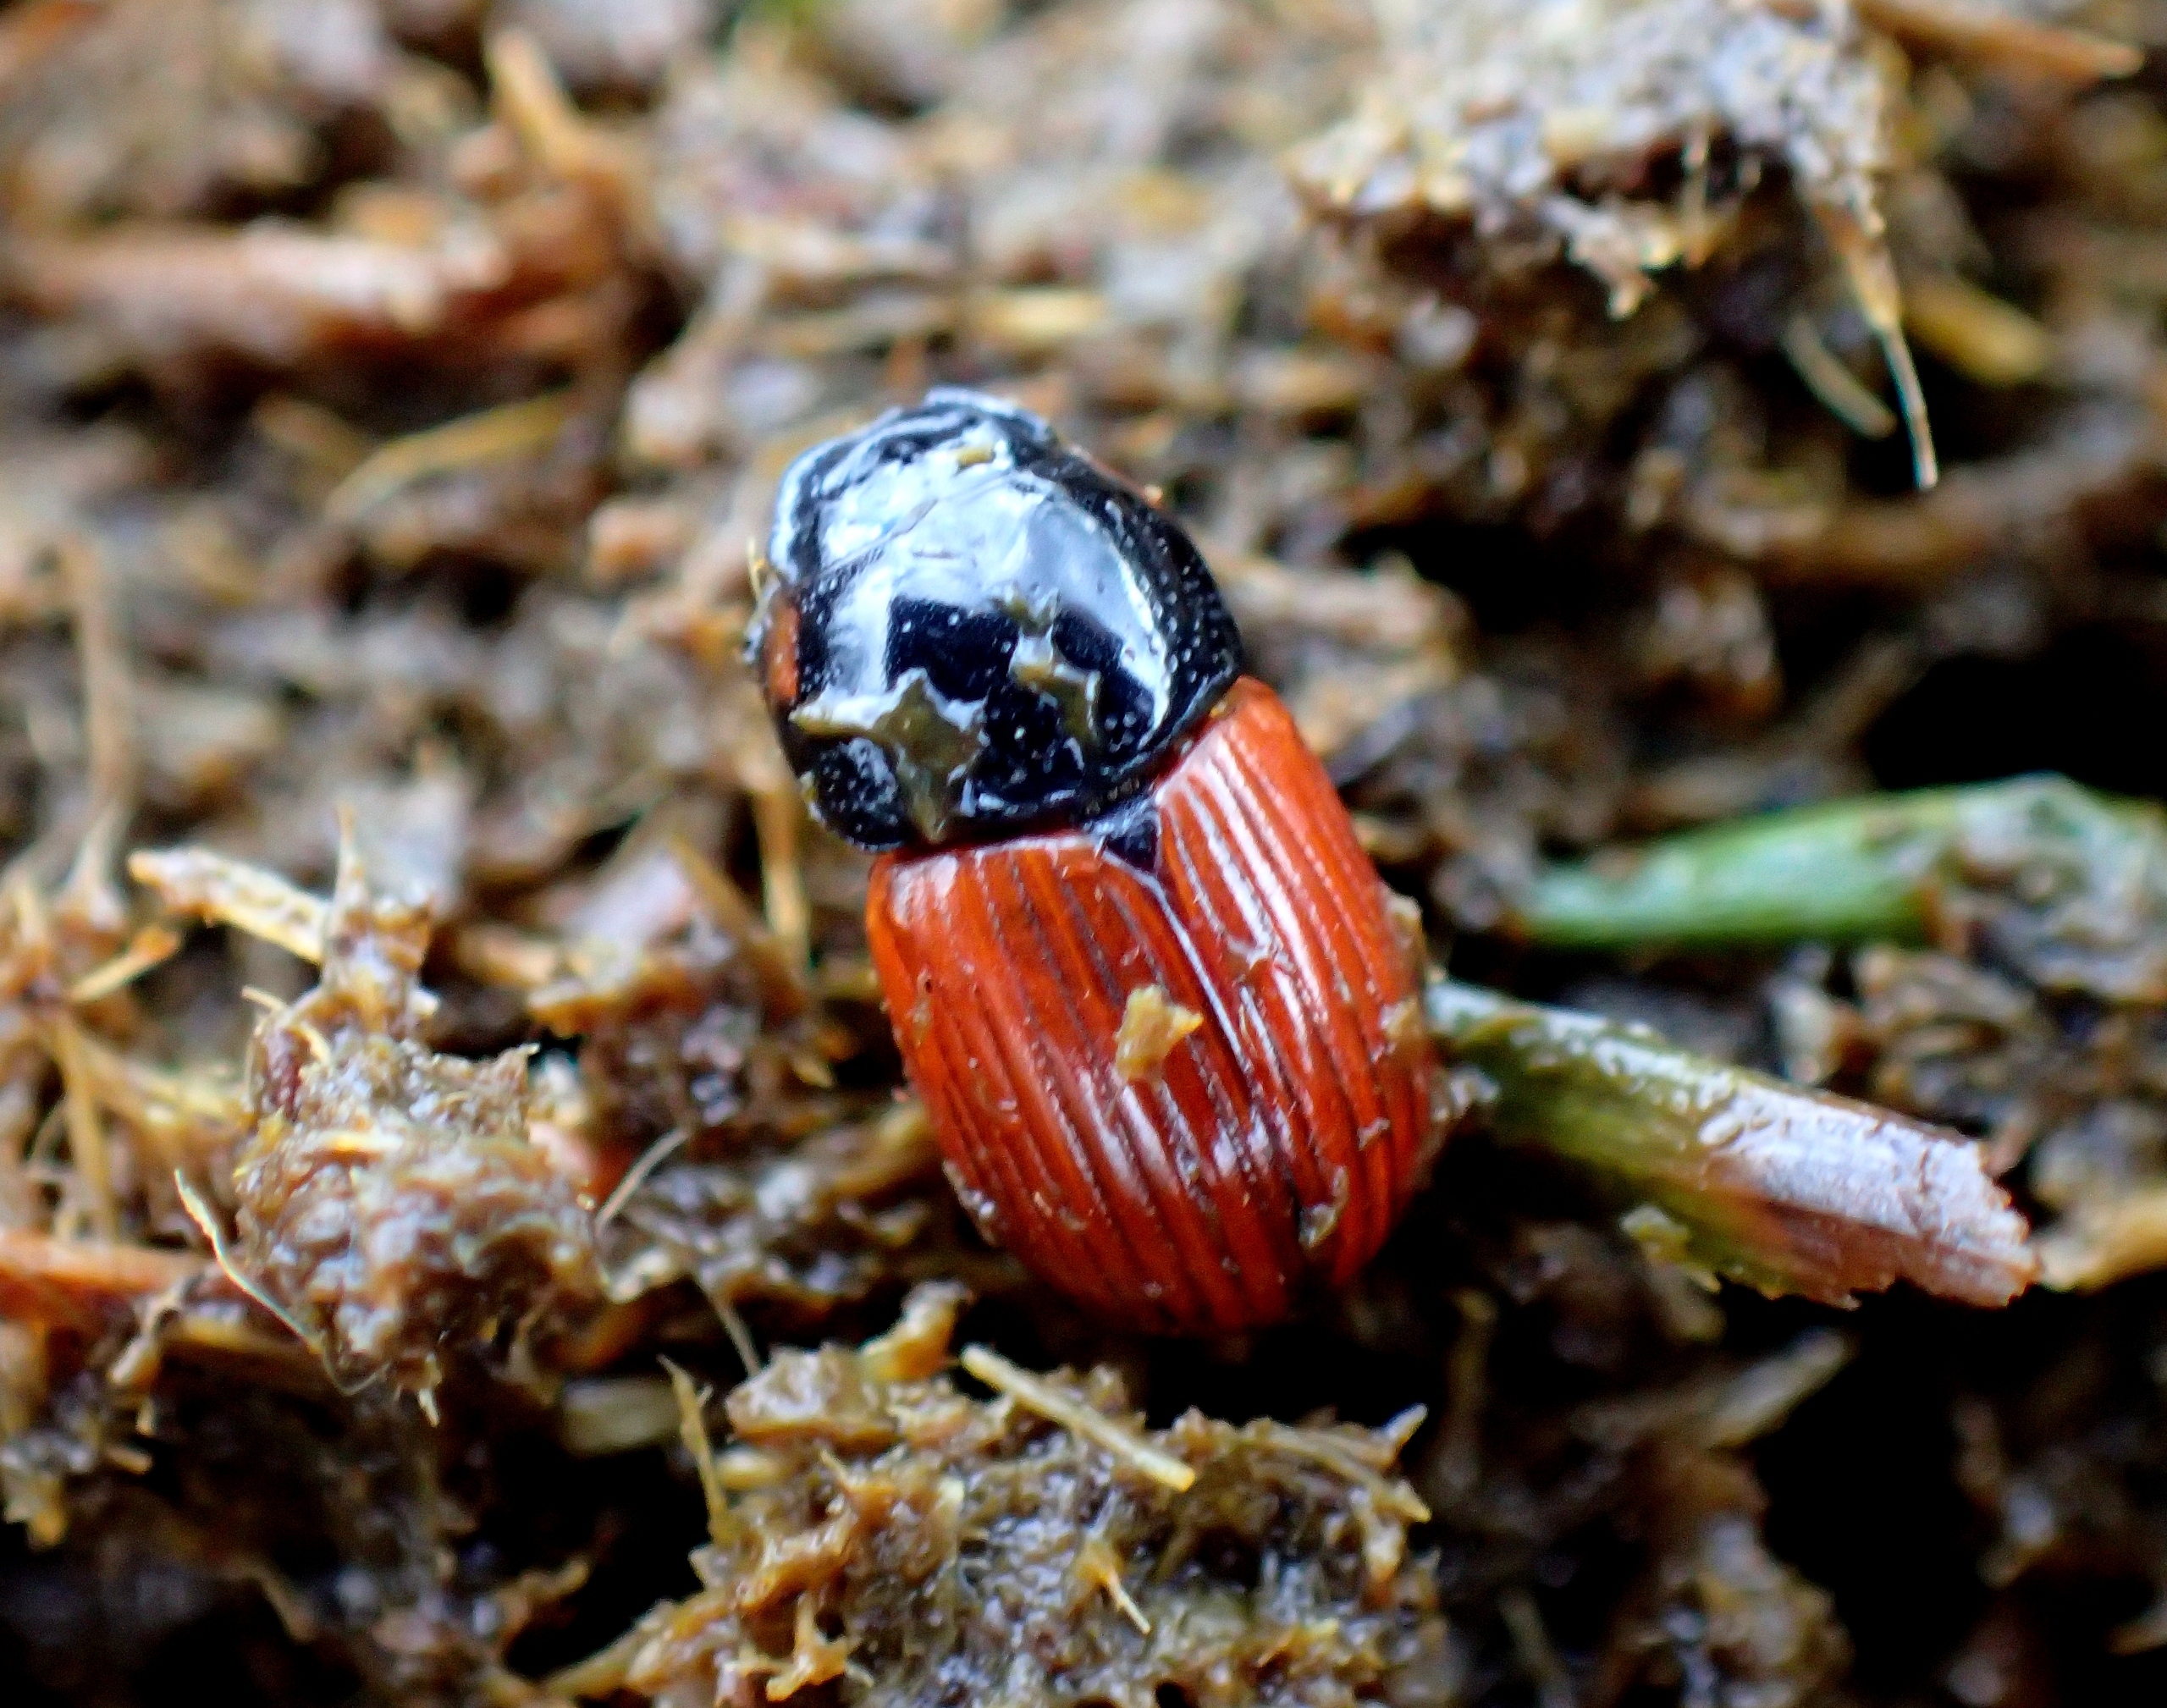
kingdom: Animalia
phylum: Arthropoda
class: Insecta
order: Coleoptera
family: Scarabaeidae
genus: Aphodius
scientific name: Aphodius pedellus
